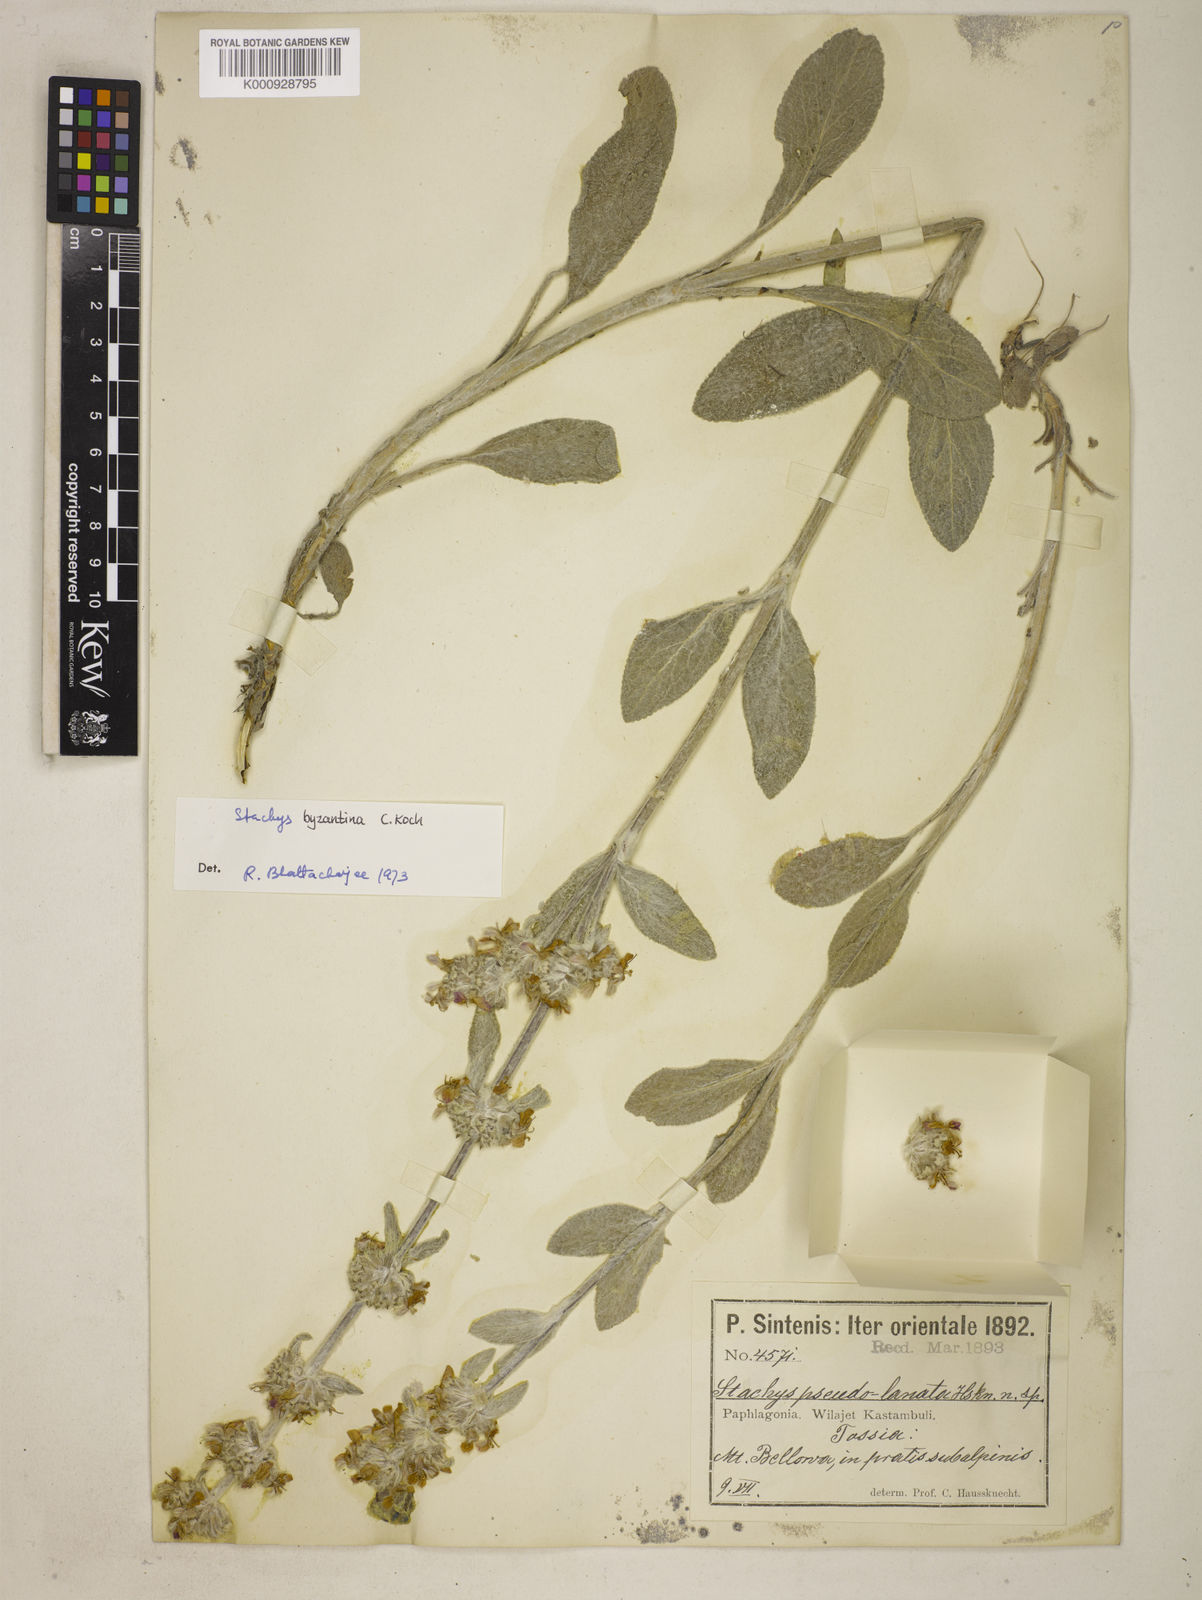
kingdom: Plantae
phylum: Tracheophyta
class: Magnoliopsida
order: Lamiales
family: Lamiaceae
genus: Stachys
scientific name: Stachys germanica
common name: Downy woundwort
